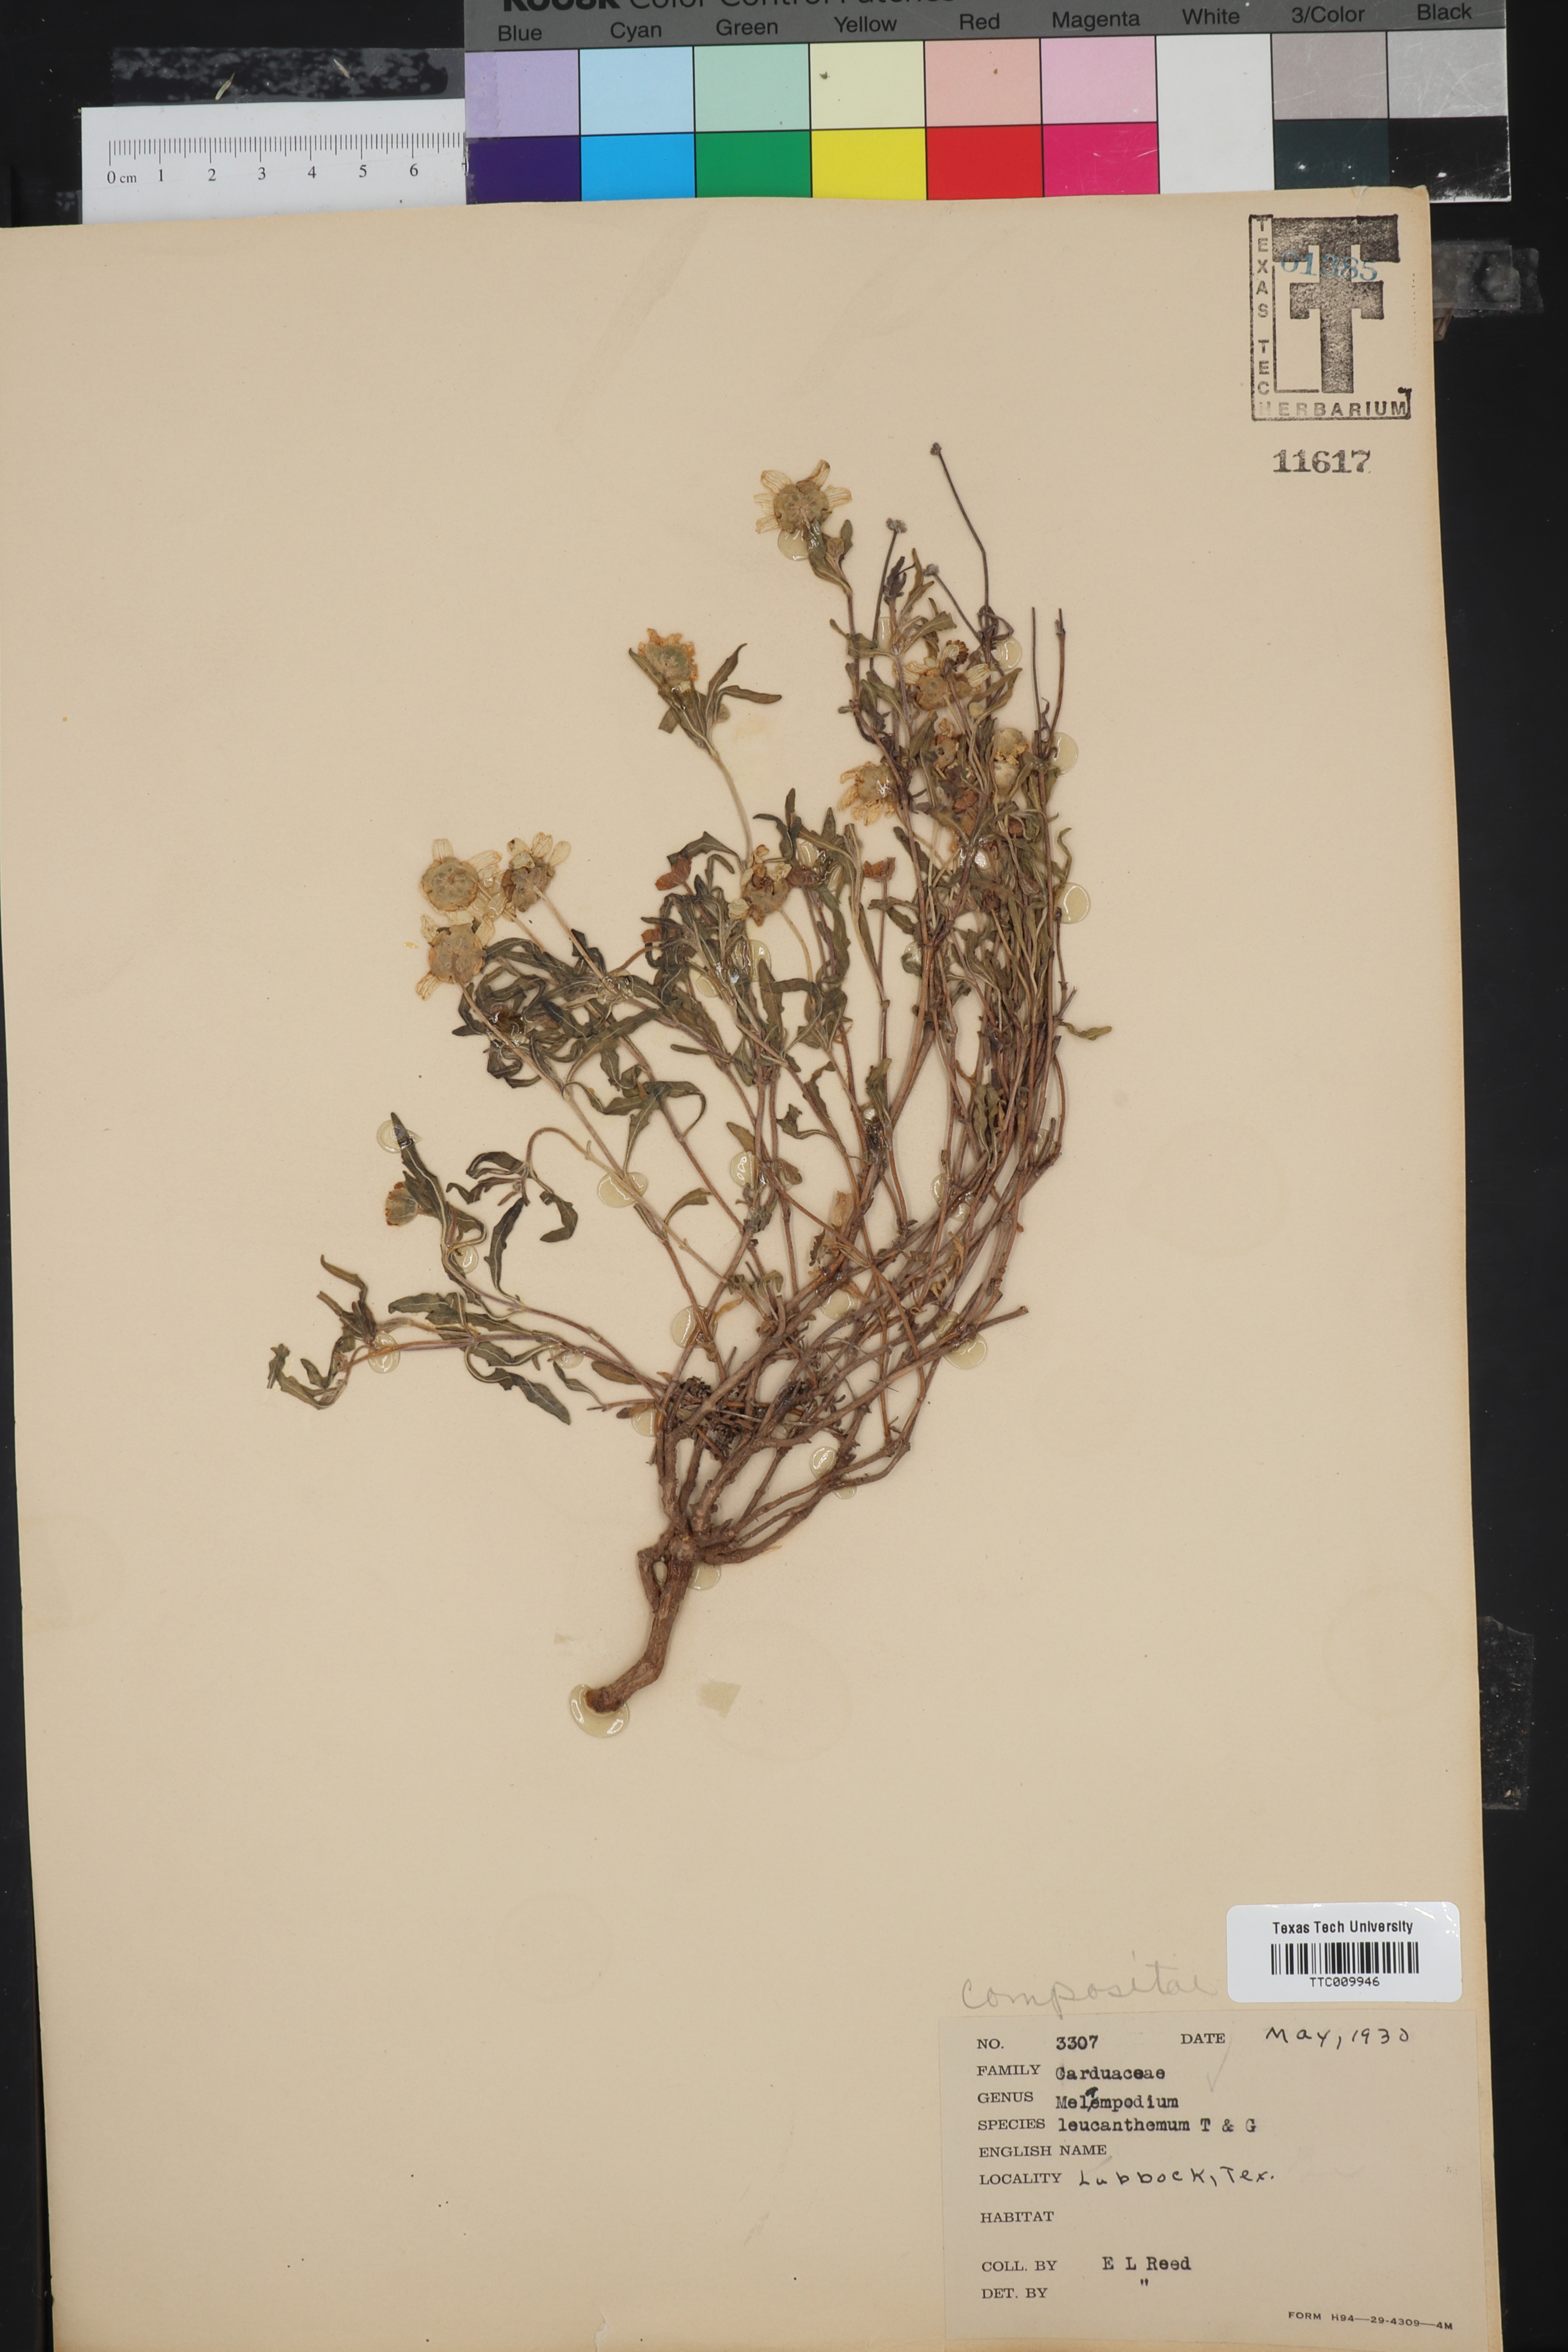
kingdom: Plantae
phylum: Tracheophyta
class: Magnoliopsida
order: Asterales
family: Asteraceae
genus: Melampodium
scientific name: Melampodium leucanthum
